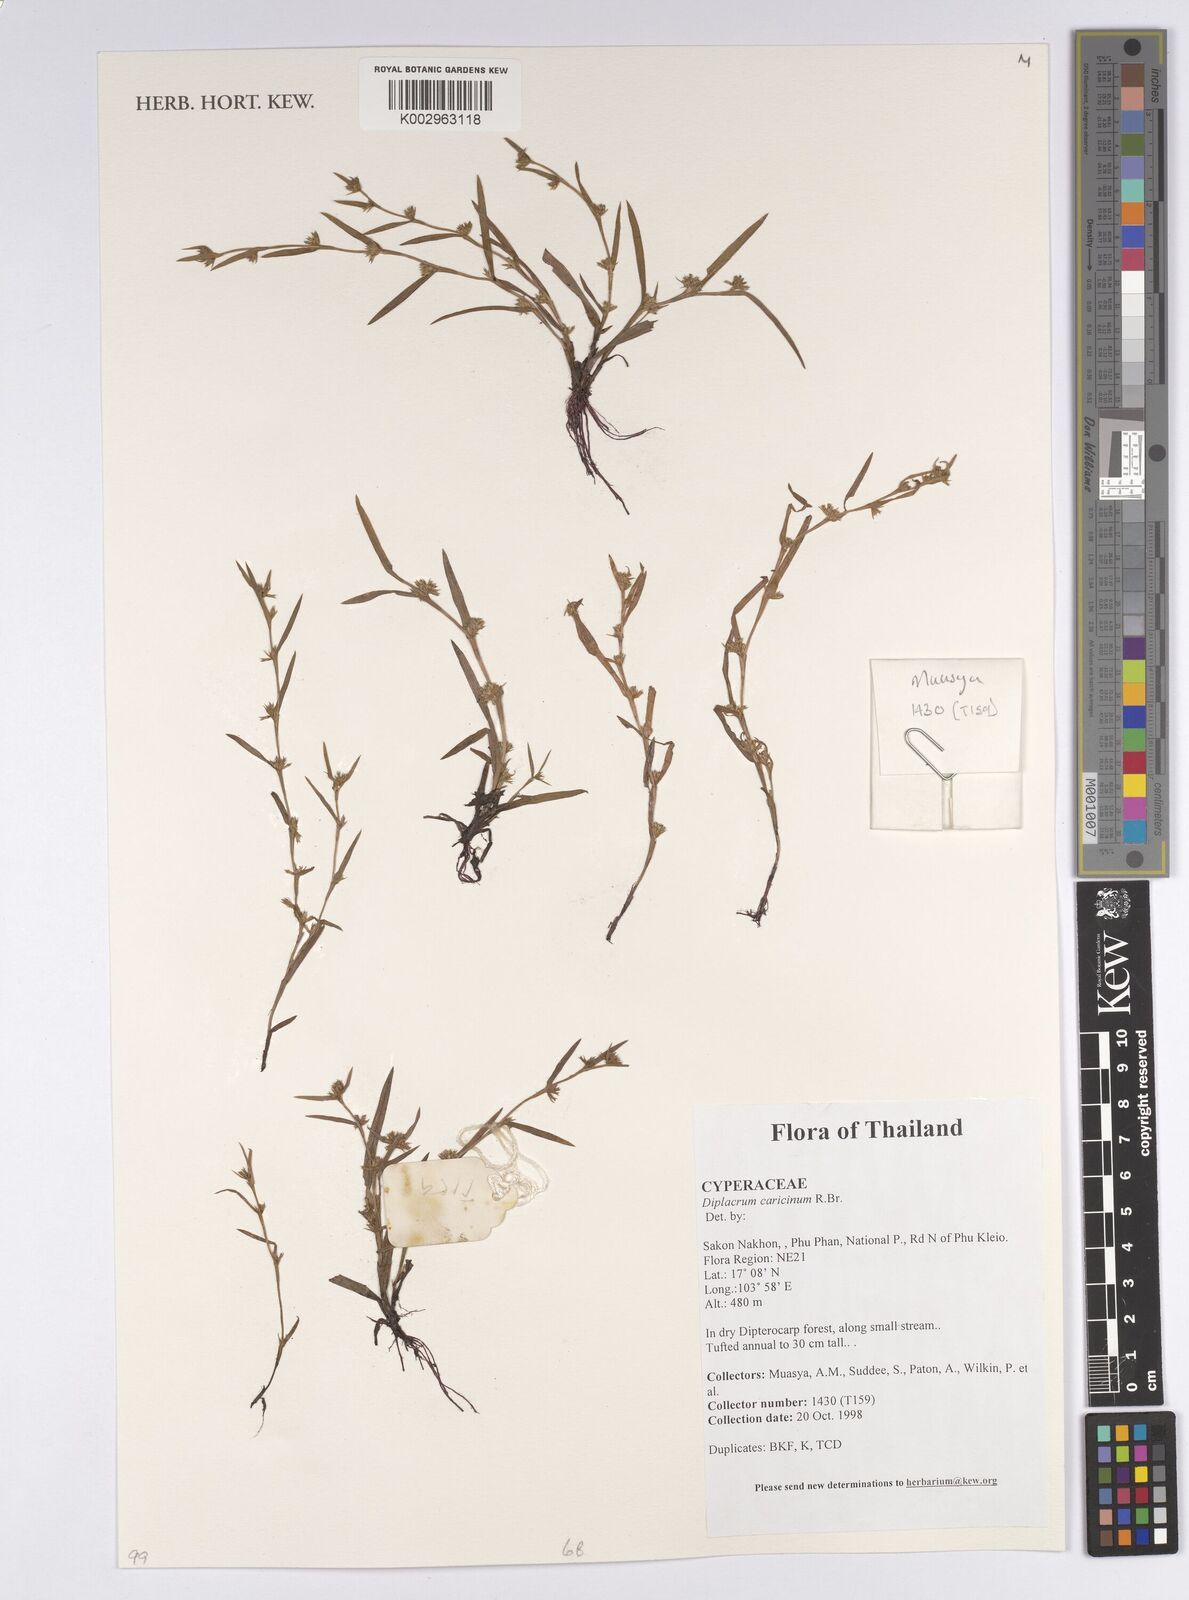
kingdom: Plantae
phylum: Tracheophyta
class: Liliopsida
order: Poales
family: Cyperaceae
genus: Diplacrum
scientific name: Diplacrum caricinum
